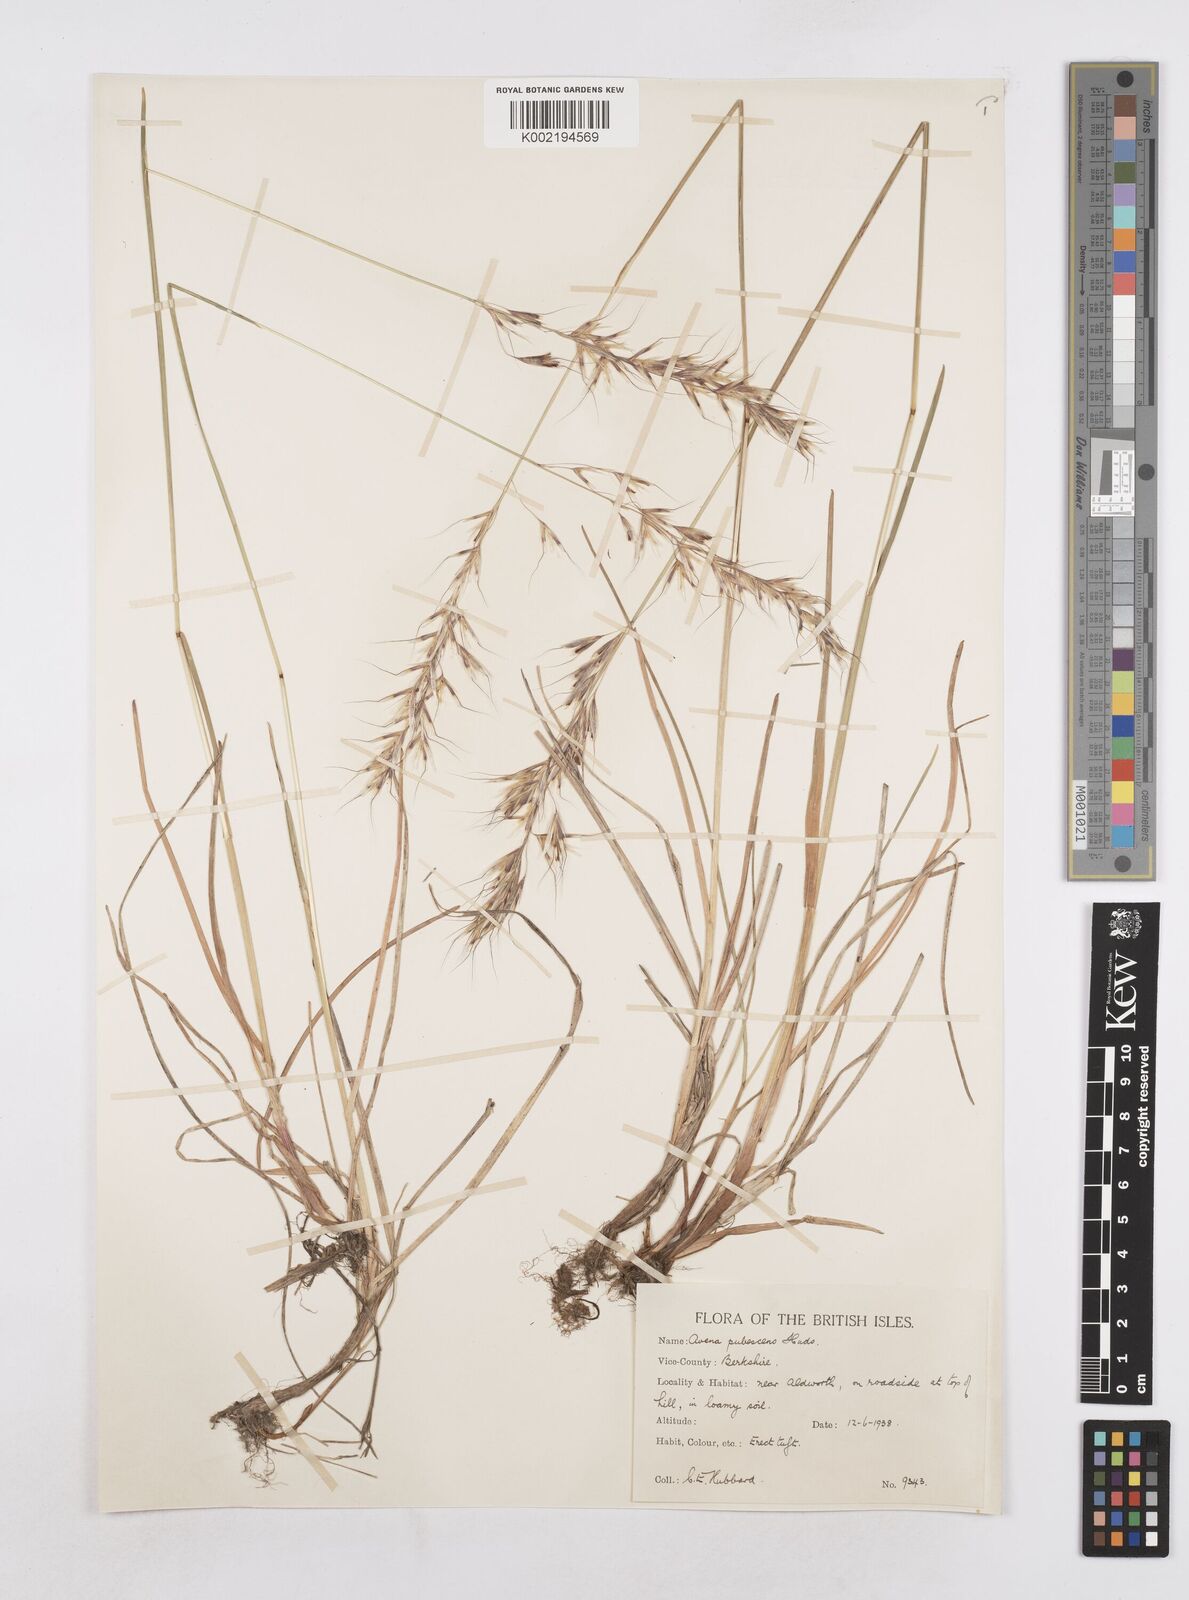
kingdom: Plantae
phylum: Tracheophyta
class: Liliopsida
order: Poales
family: Poaceae
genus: Avenula
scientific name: Avenula pubescens
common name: Downy alpine oatgrass
